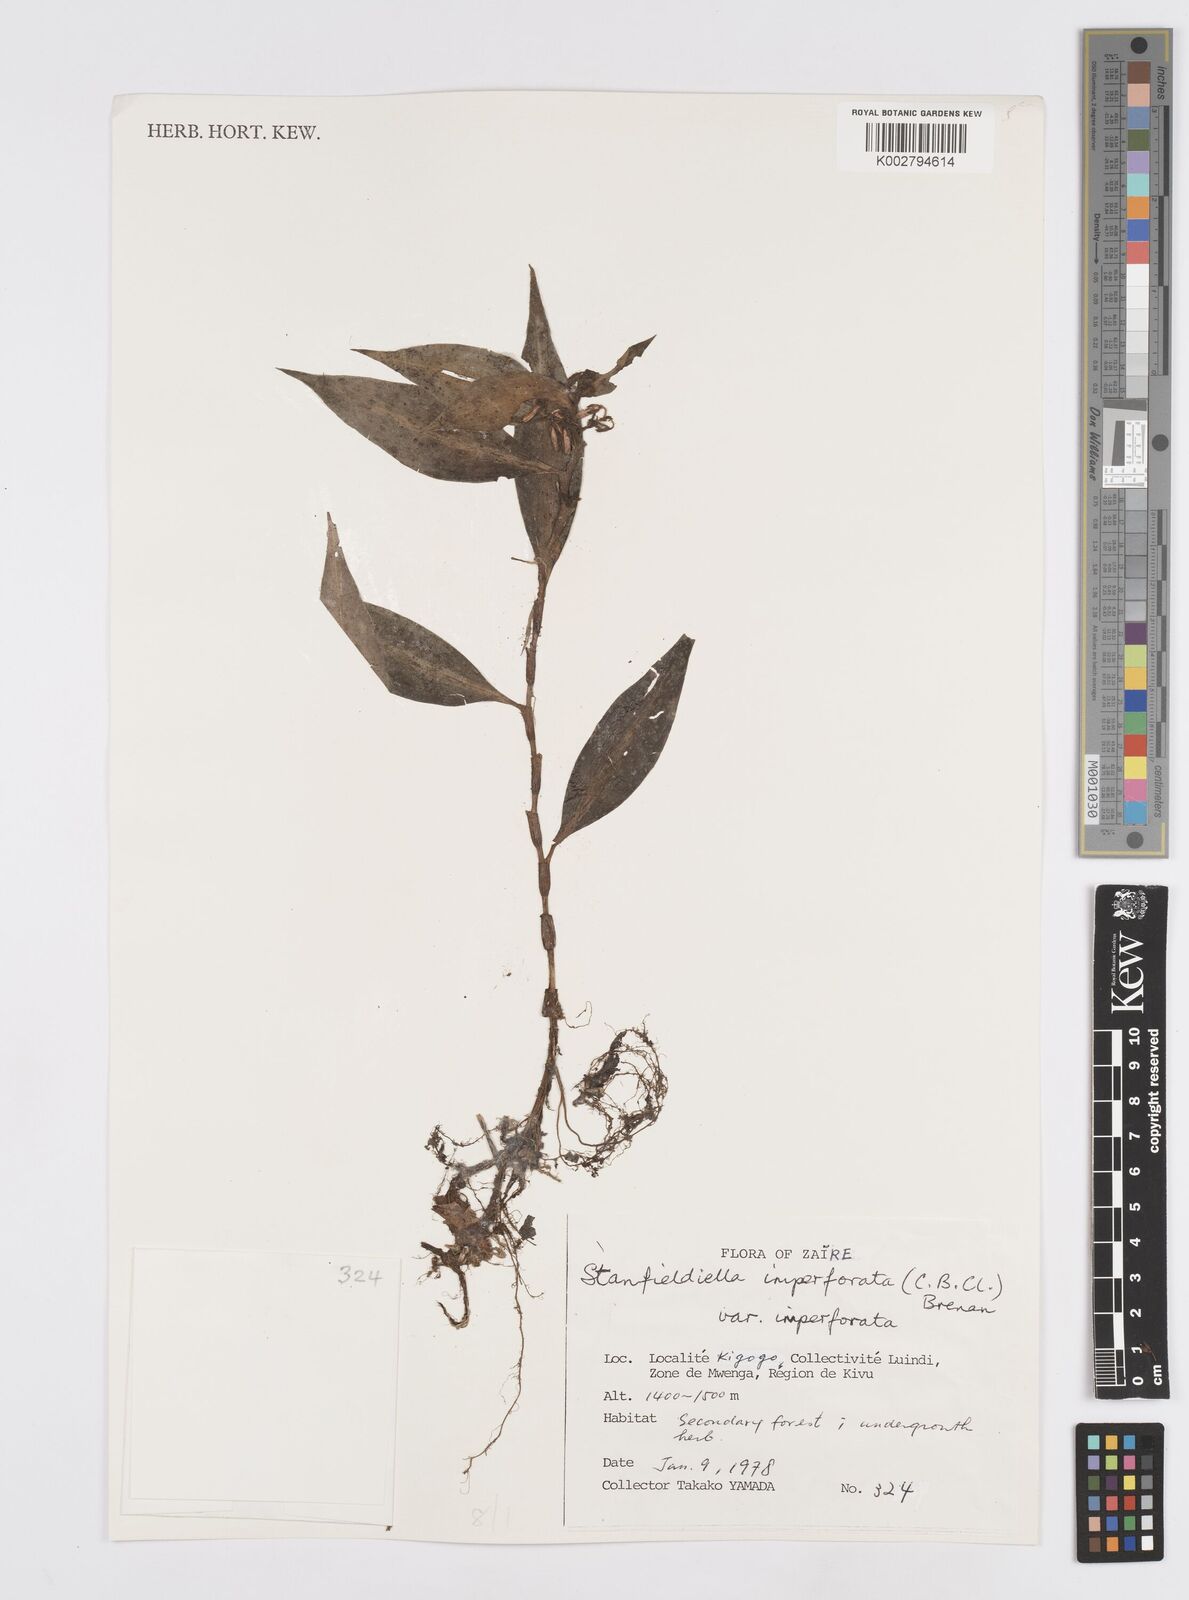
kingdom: Plantae
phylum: Tracheophyta
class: Liliopsida
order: Commelinales
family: Commelinaceae
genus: Stanfieldiella
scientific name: Stanfieldiella imperforata
